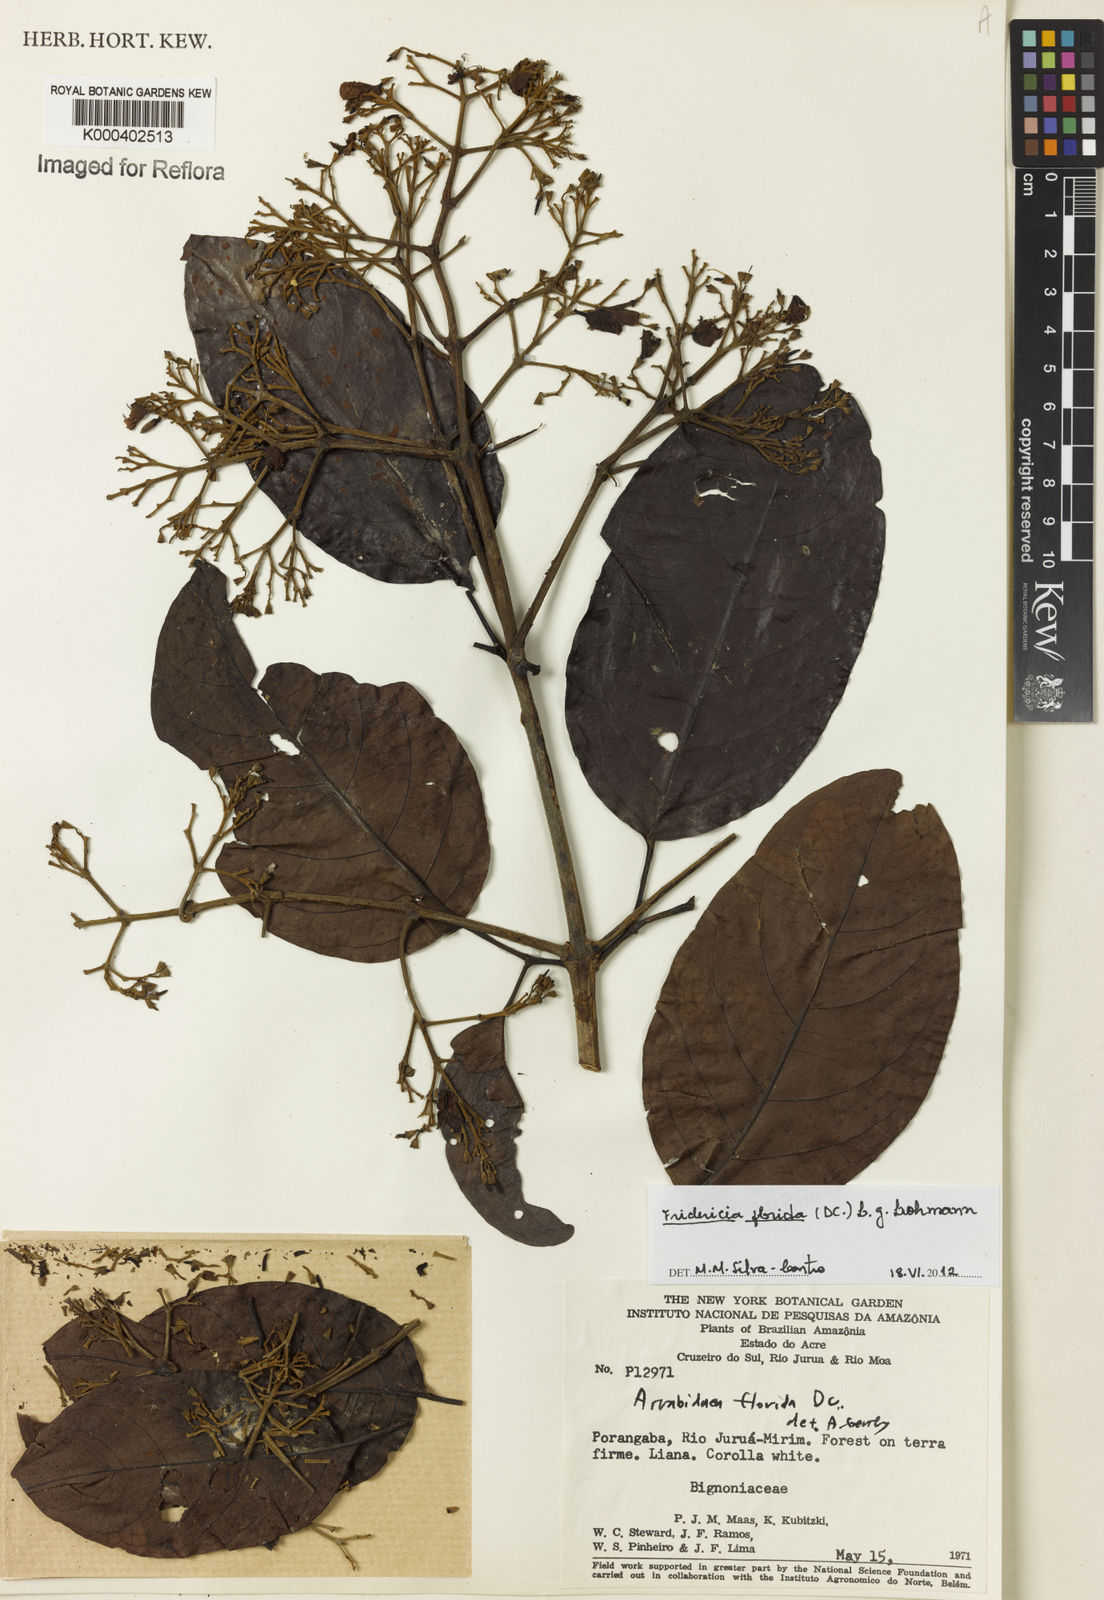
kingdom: Plantae
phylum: Tracheophyta
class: Magnoliopsida
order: Lamiales
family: Bignoniaceae
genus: Fridericia
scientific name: Fridericia florida
